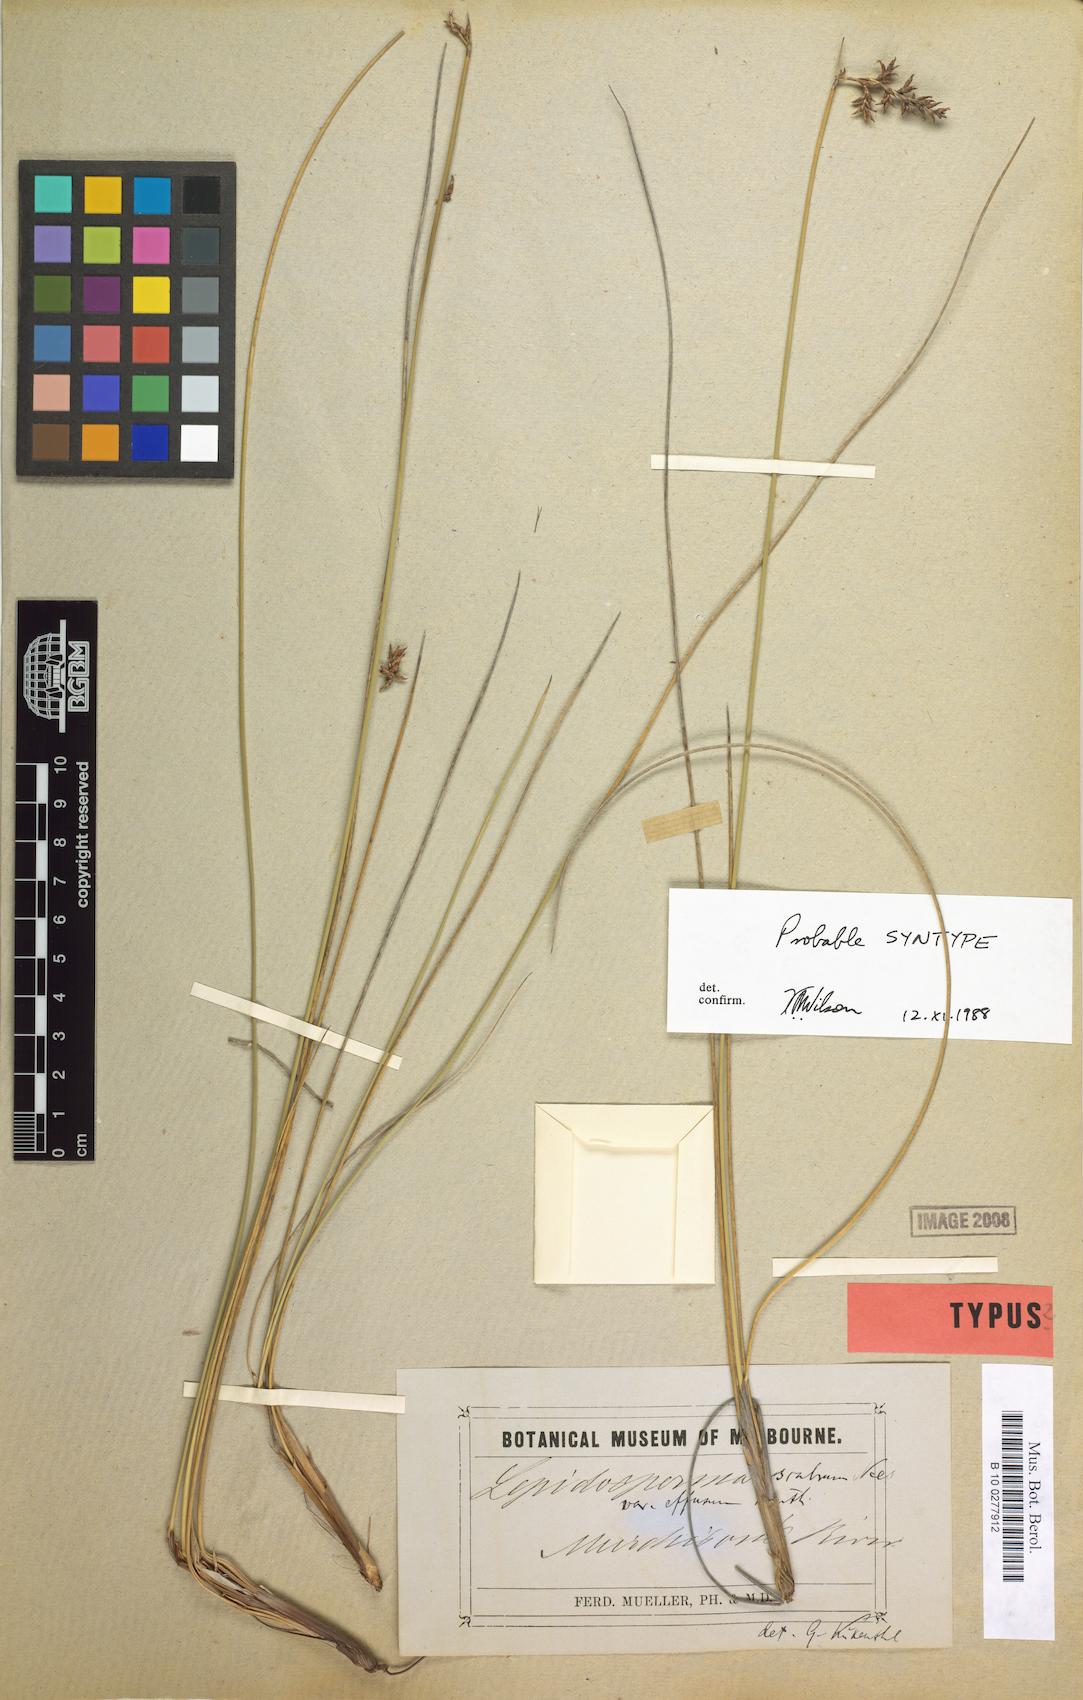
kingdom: Plantae
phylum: Tracheophyta
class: Liliopsida
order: Poales
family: Cyperaceae
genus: Lepidosperma
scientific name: Lepidosperma scabrum
